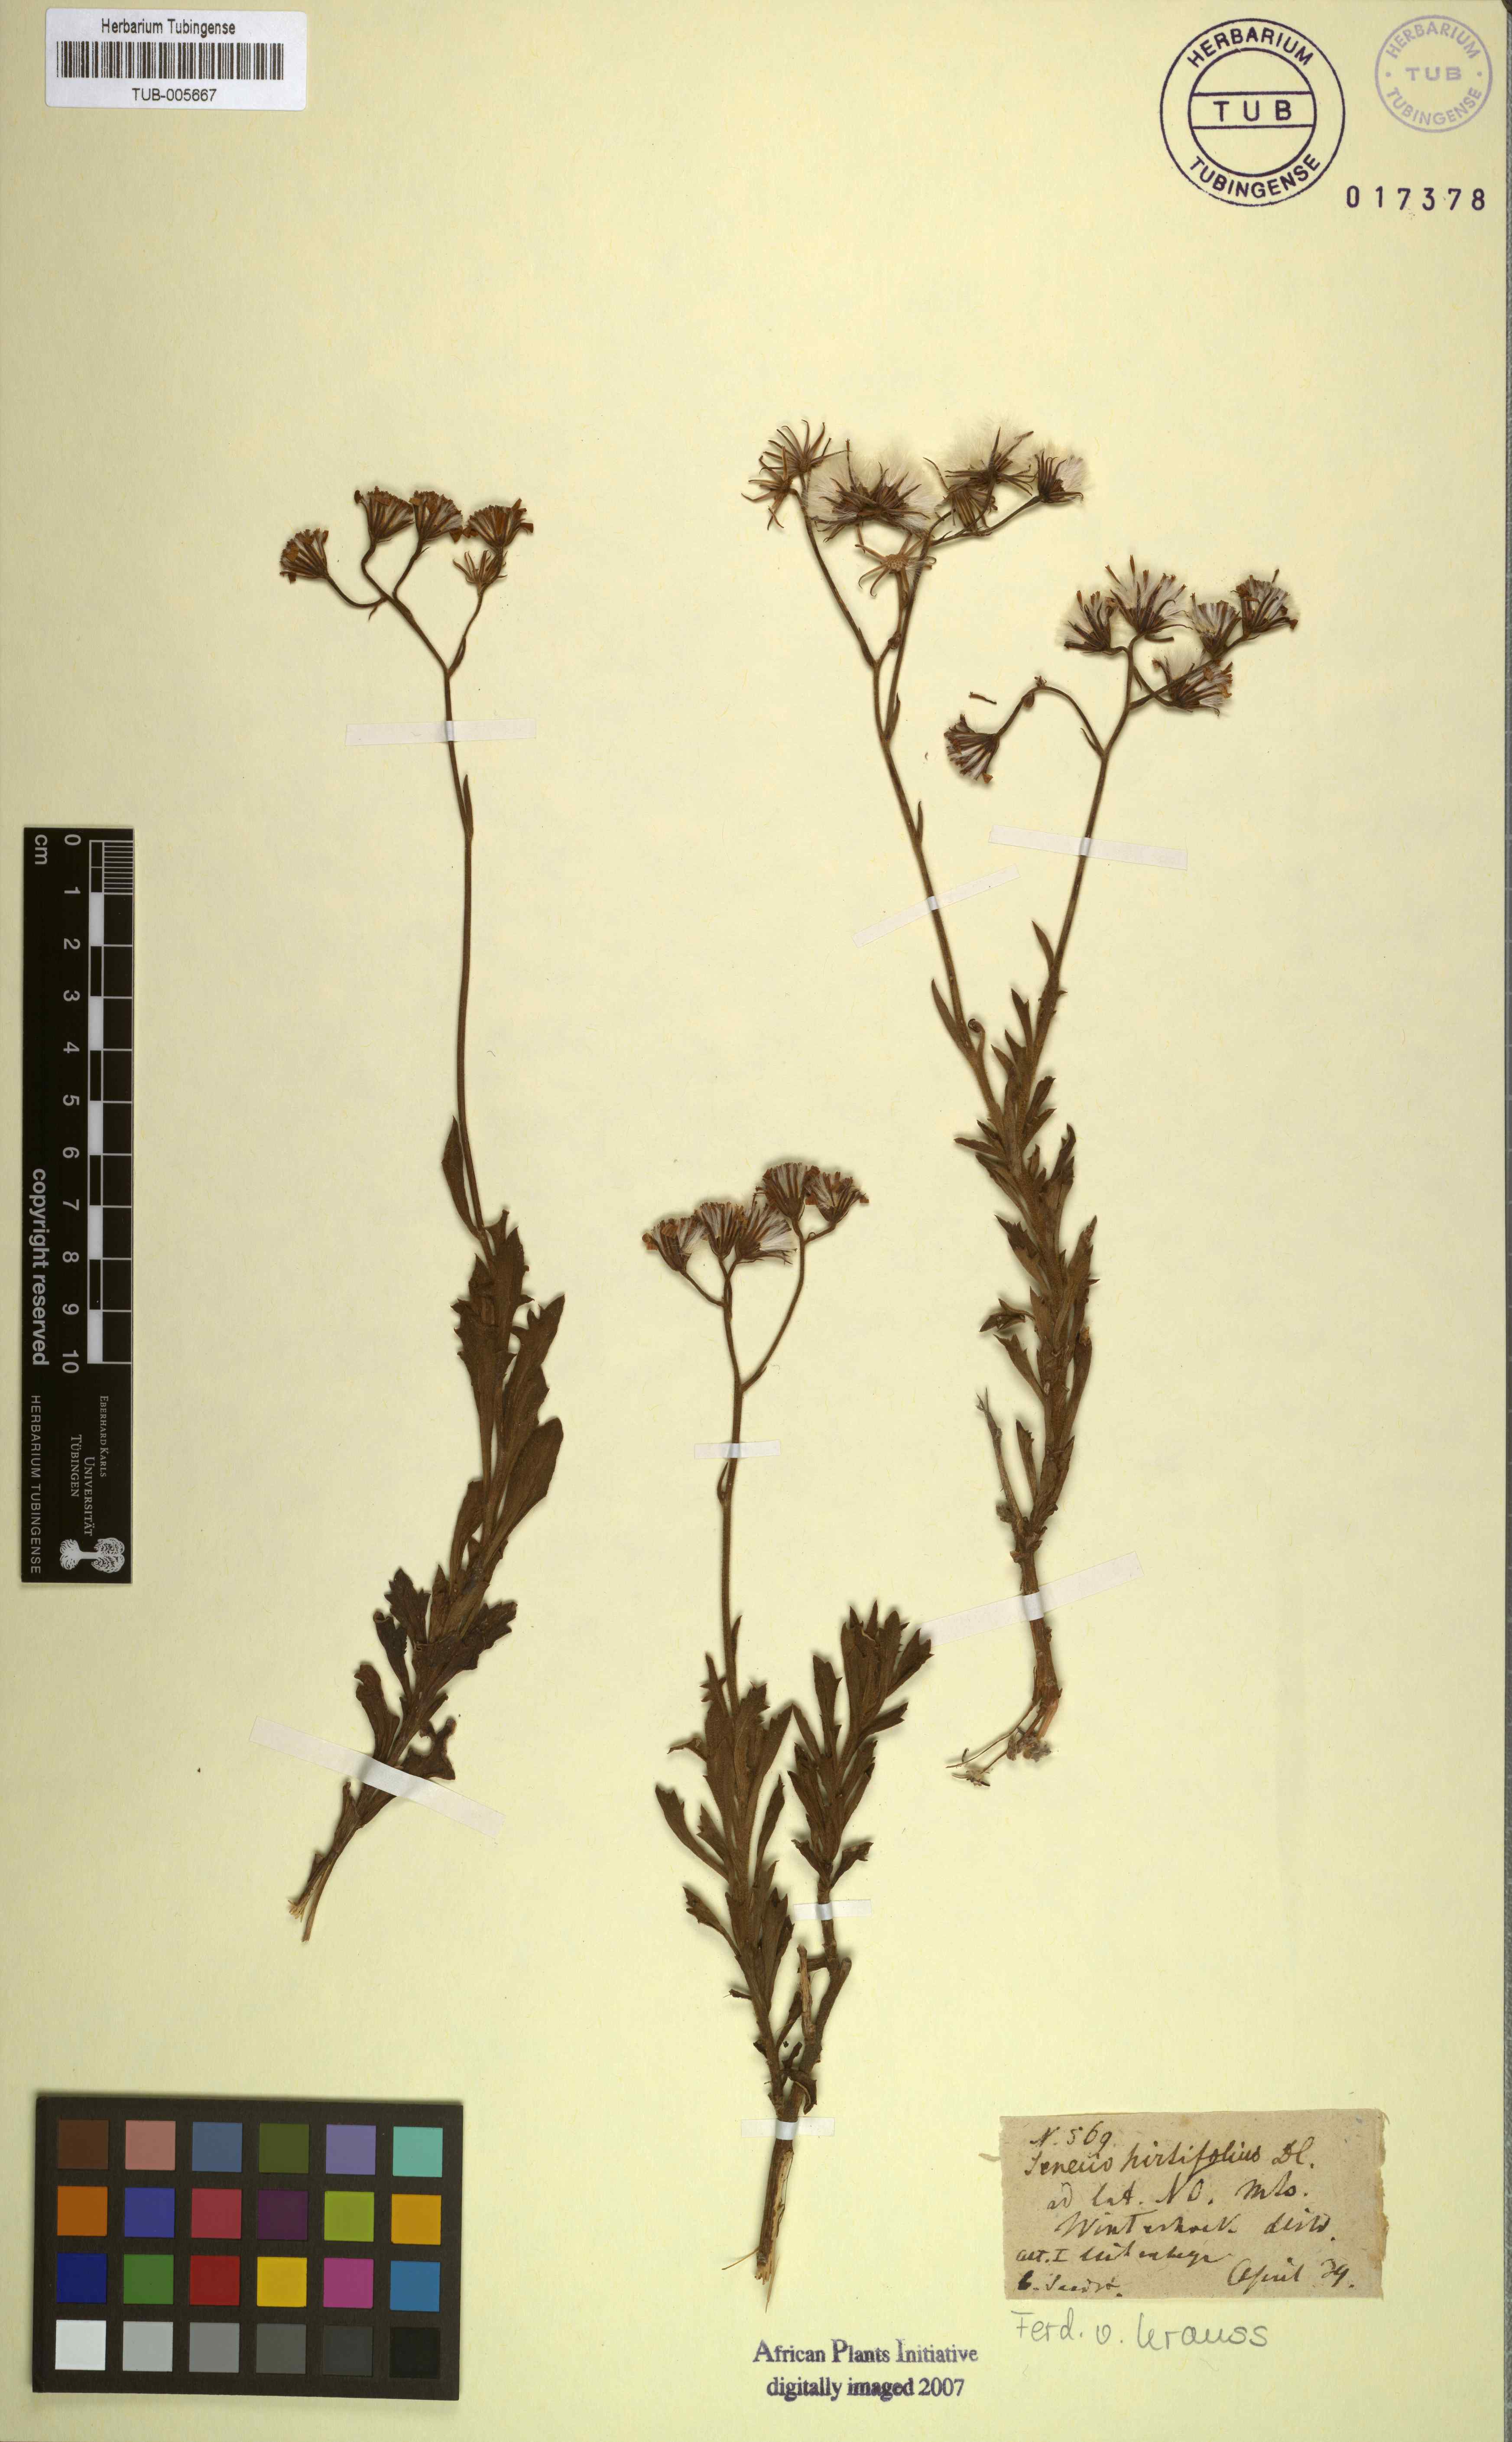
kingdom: Plantae
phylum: Tracheophyta
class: Magnoliopsida
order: Asterales
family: Asteraceae
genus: Senecio
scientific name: Senecio hirtifolius
